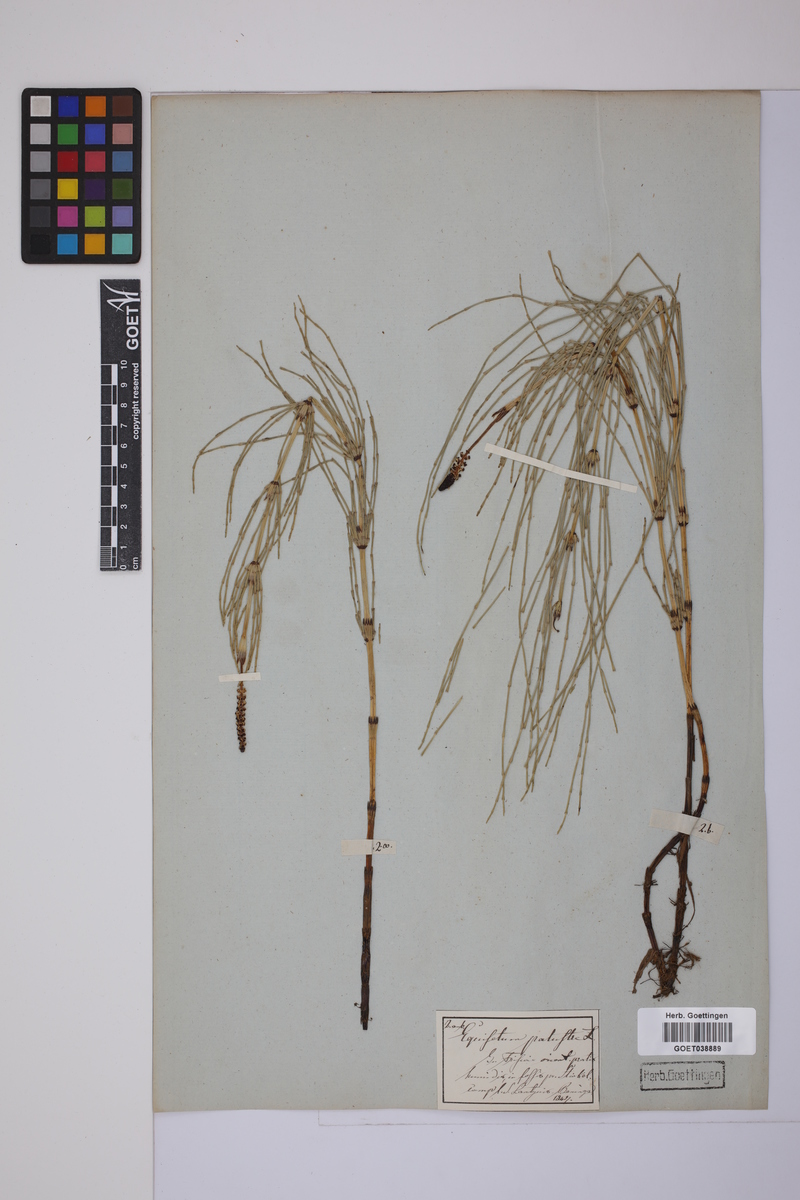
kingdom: Plantae
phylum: Tracheophyta
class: Polypodiopsida
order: Equisetales
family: Equisetaceae
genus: Equisetum
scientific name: Equisetum palustre
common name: Marsh horsetail
